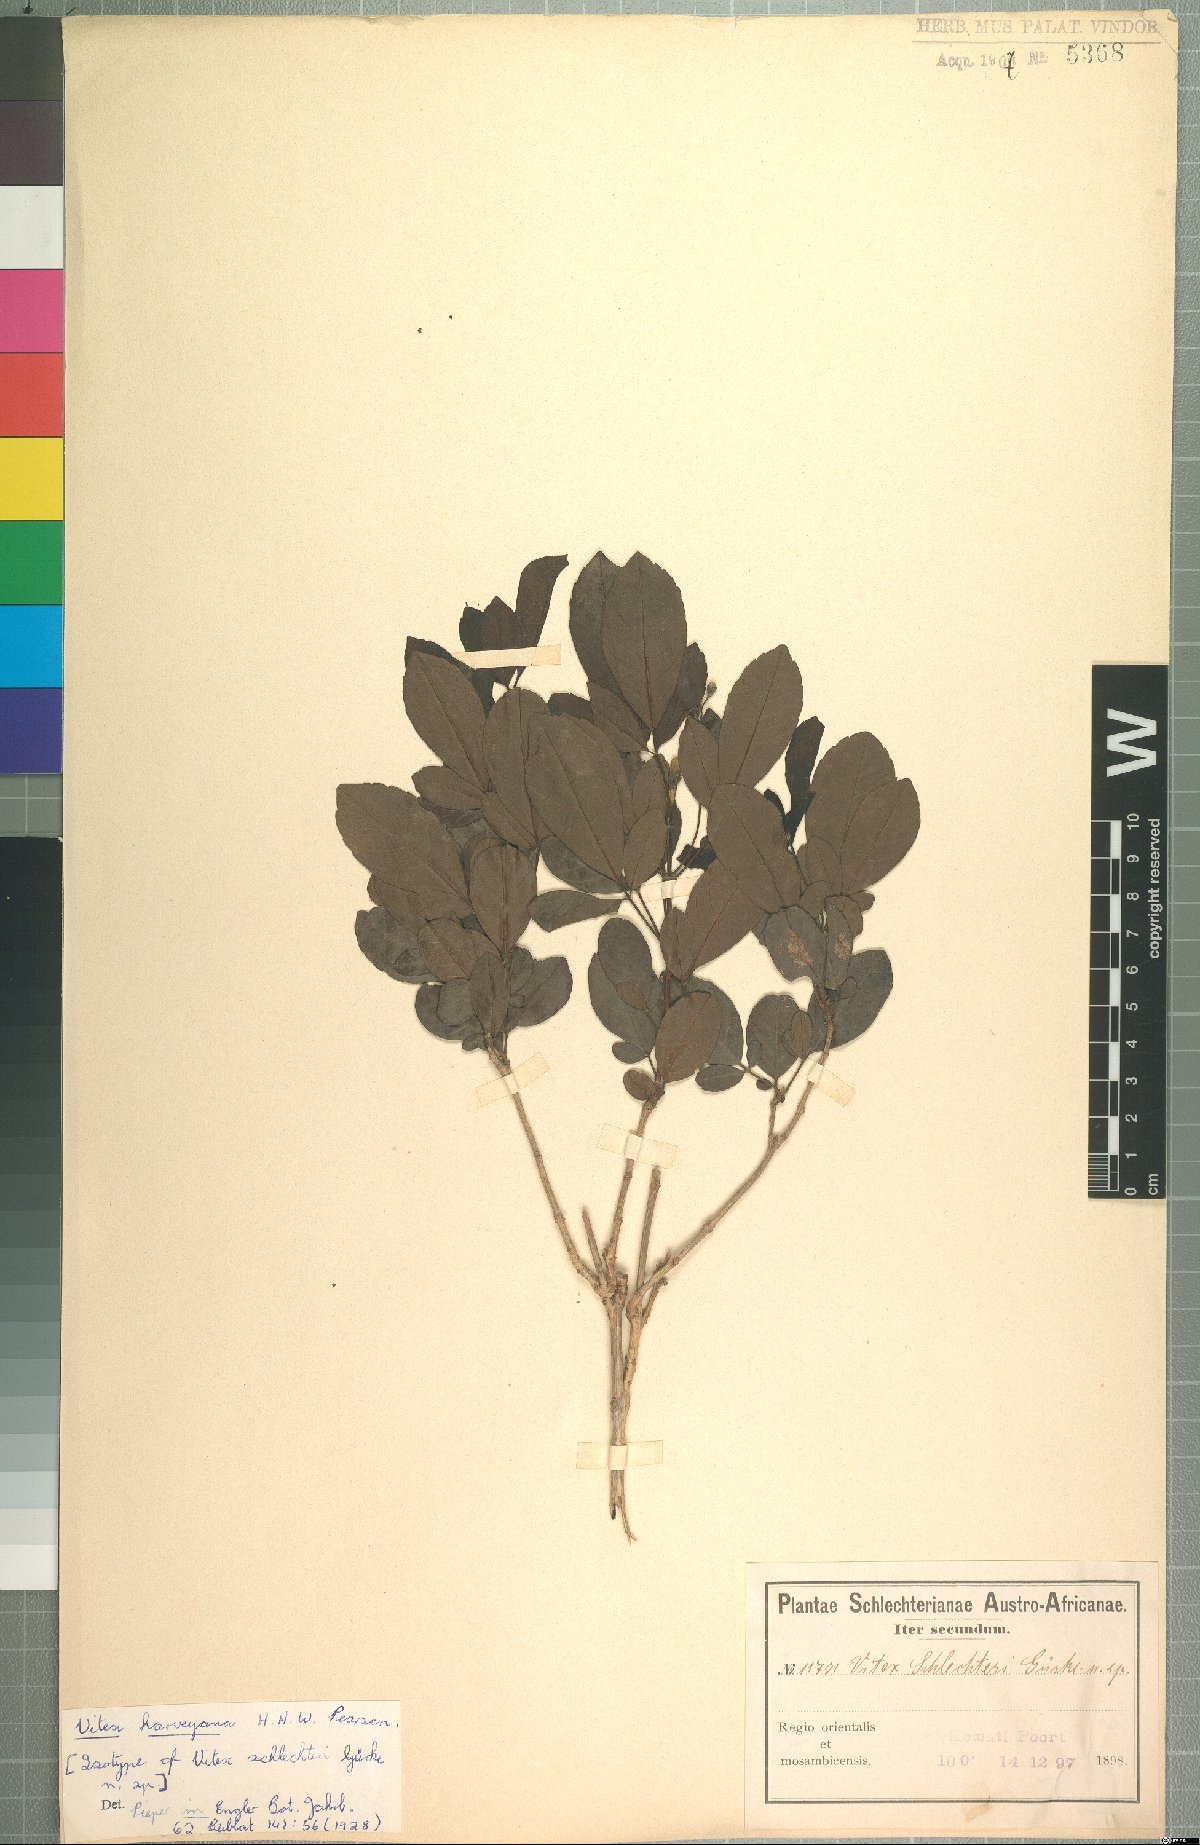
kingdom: Plantae
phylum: Tracheophyta
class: Magnoliopsida
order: Lamiales
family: Lamiaceae
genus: Vitex
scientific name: Vitex harveyana
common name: Scrambling fingerleaf
